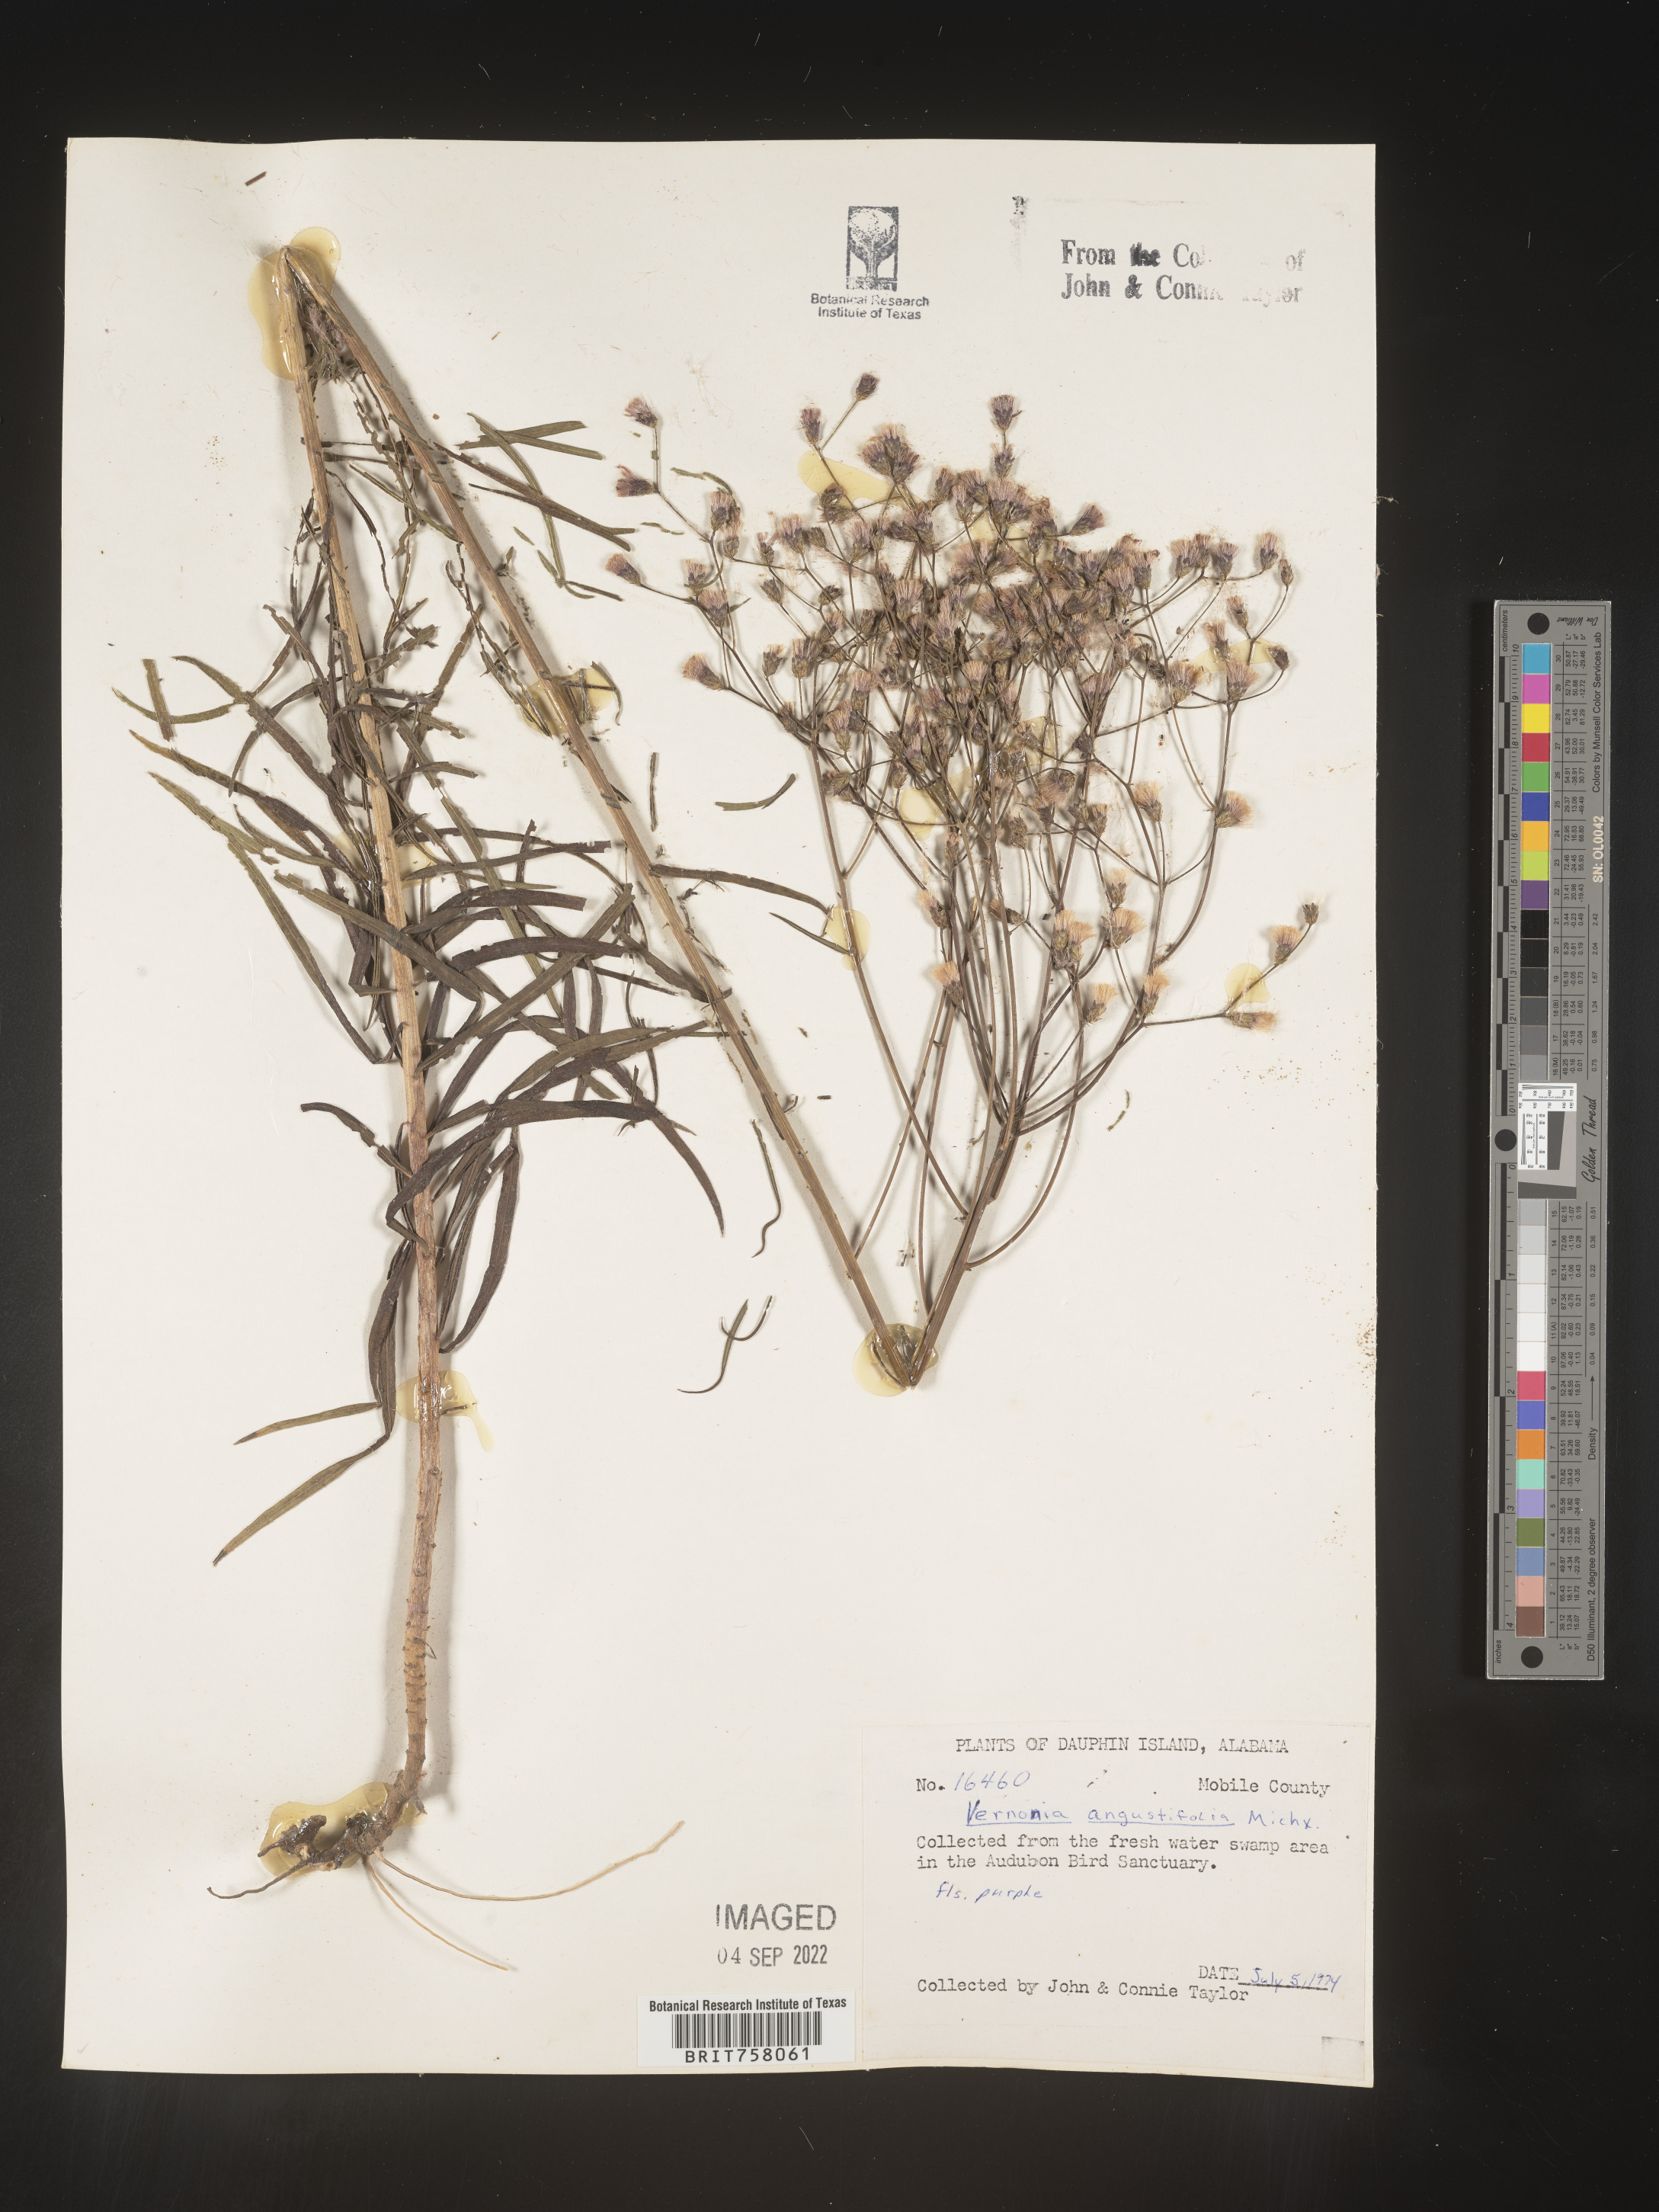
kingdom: Plantae
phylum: Tracheophyta
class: Magnoliopsida
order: Asterales
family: Asteraceae
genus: Vernonia
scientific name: Vernonia angustifolia
